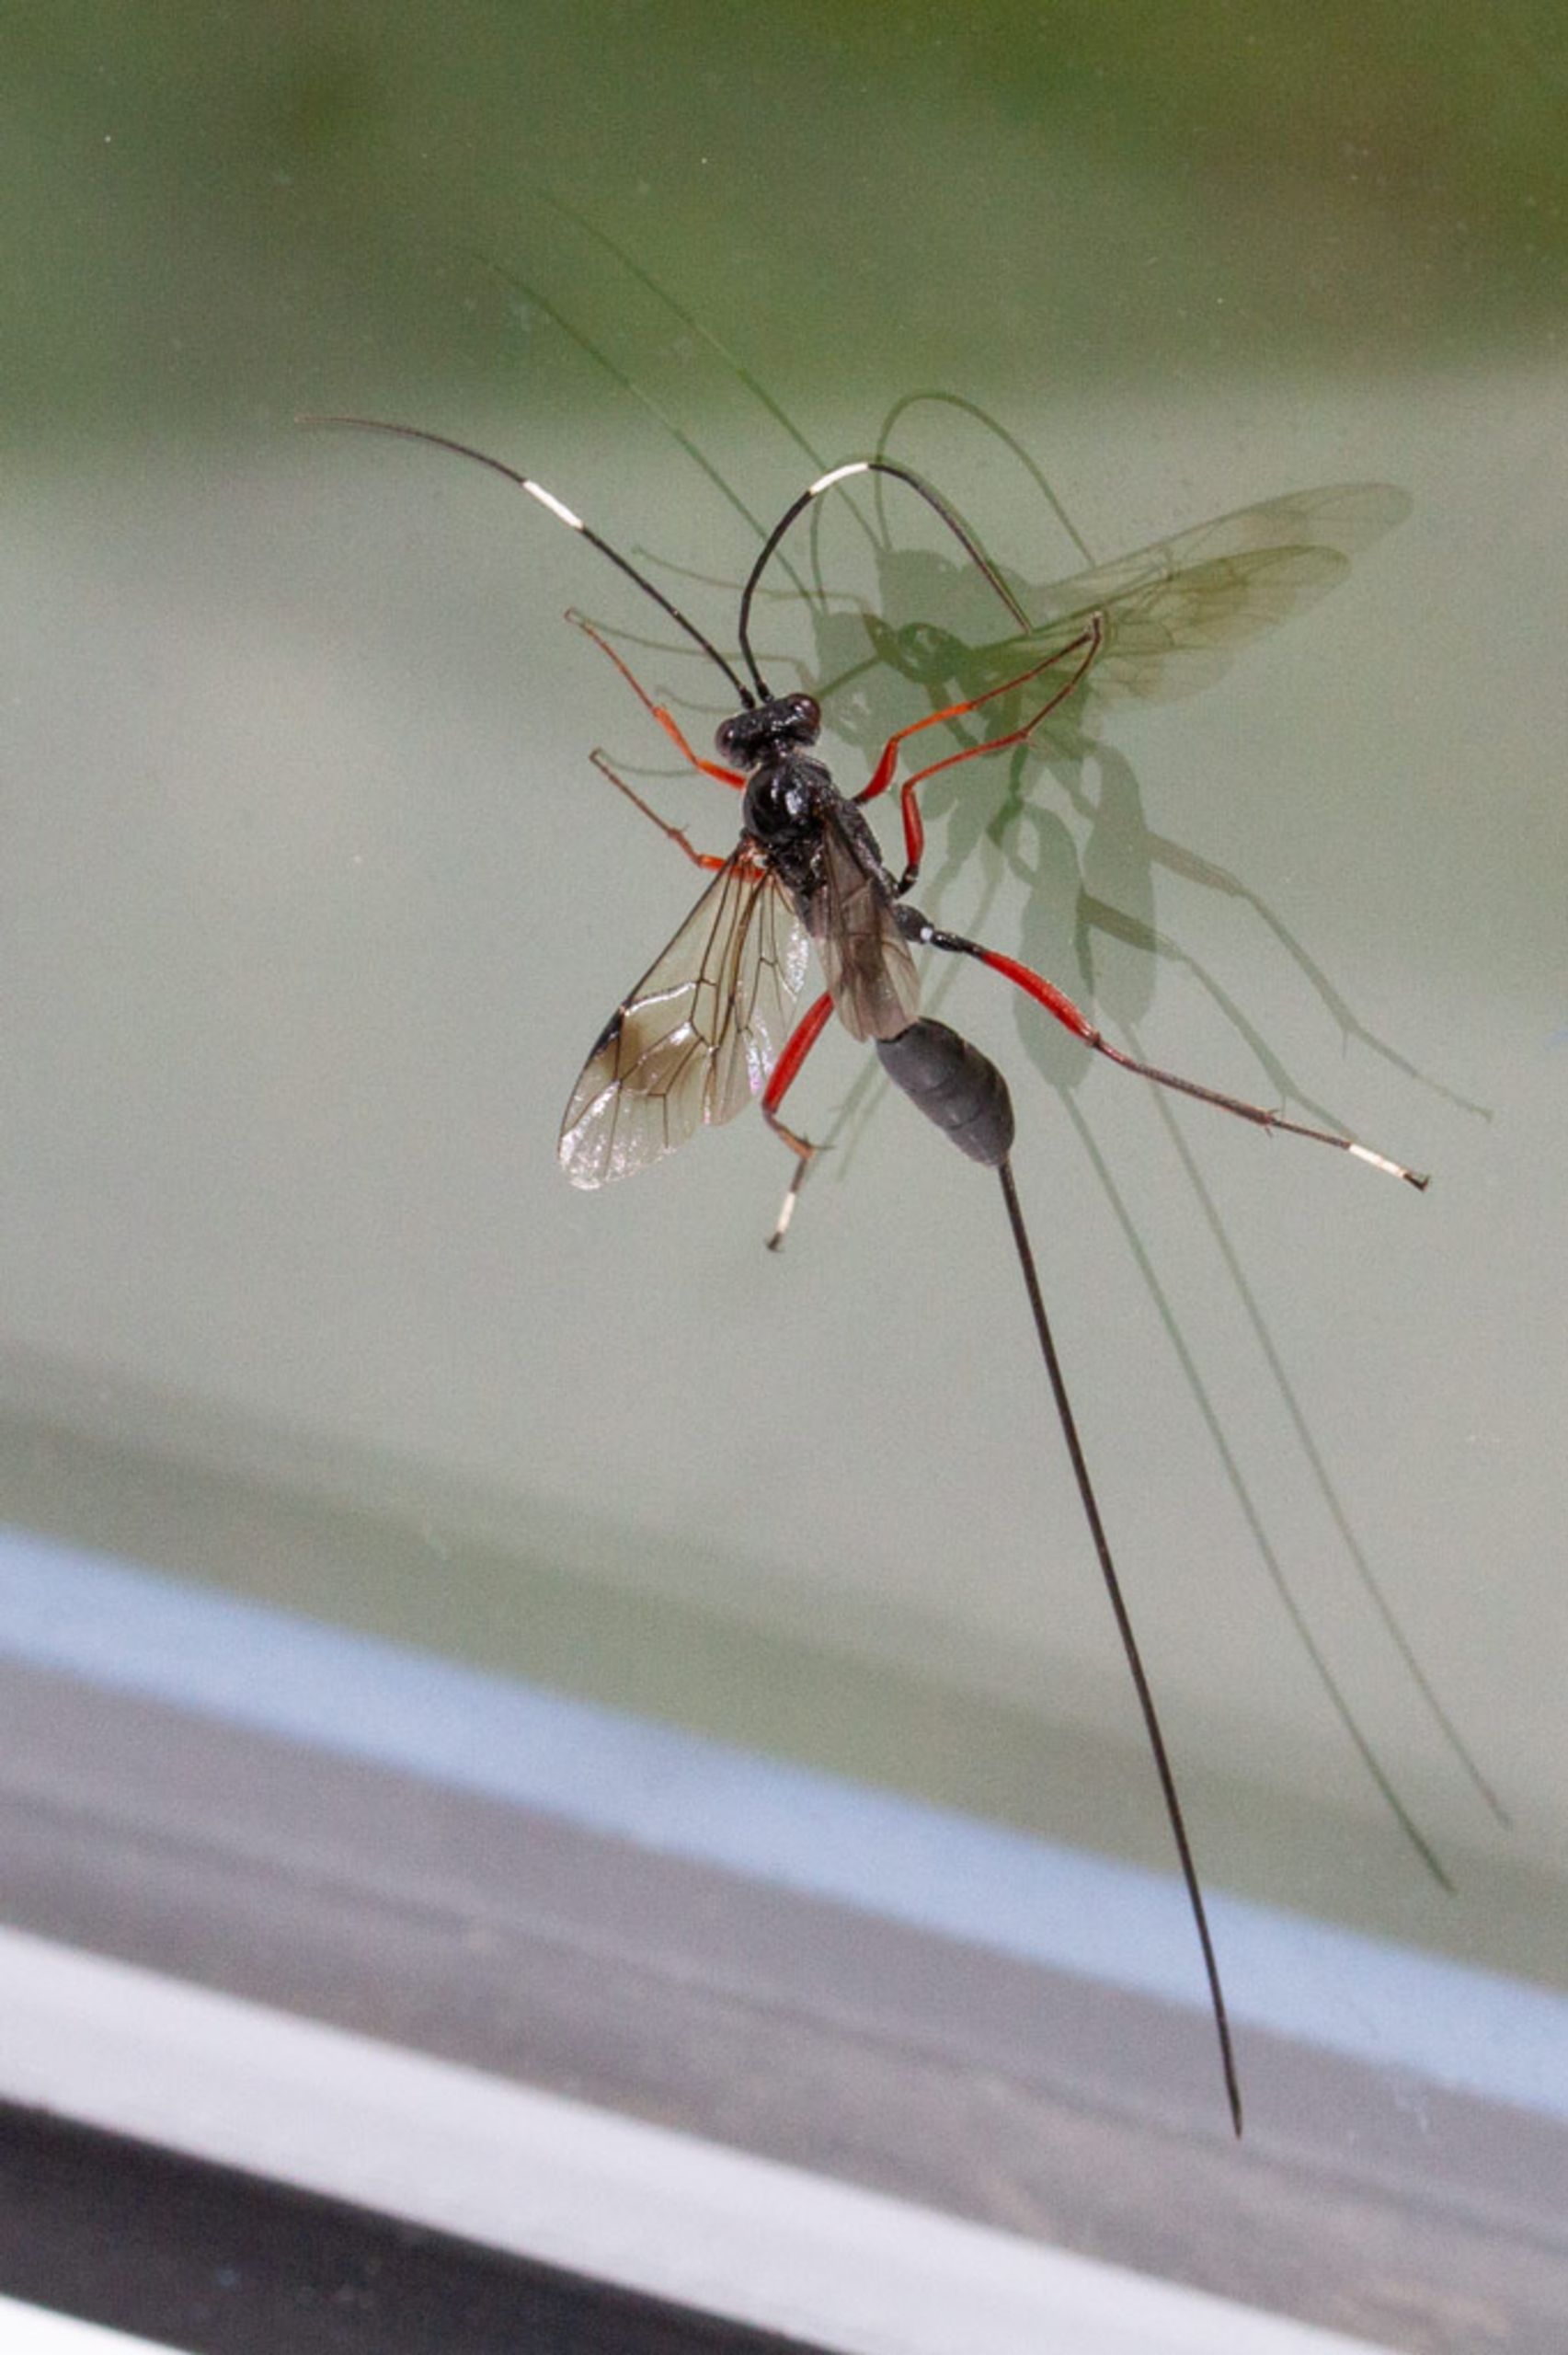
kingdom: Animalia
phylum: Arthropoda
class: Insecta
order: Hymenoptera
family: Ichneumonidae
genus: Stenarella
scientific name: Stenarella domator
